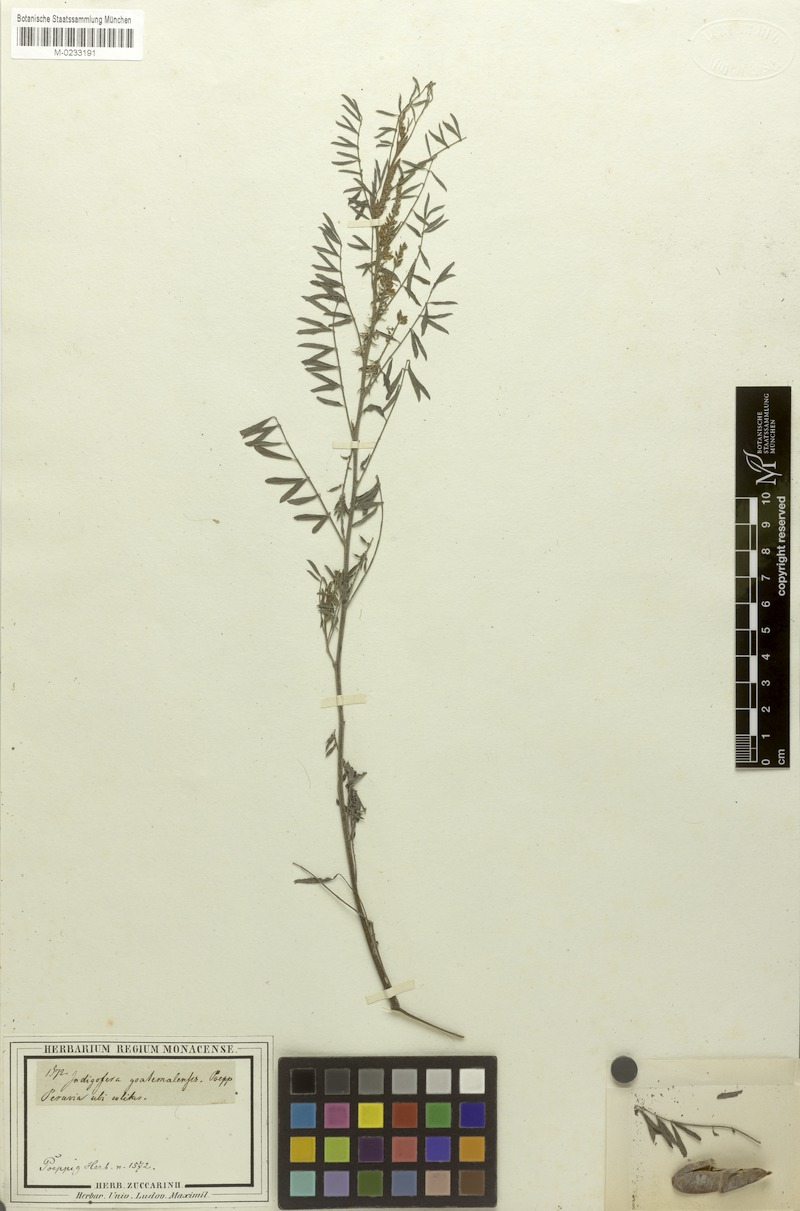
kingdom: Plantae
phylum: Tracheophyta
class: Magnoliopsida
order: Fabales
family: Fabaceae
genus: Indigofera
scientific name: Indigofera guatemalensis
